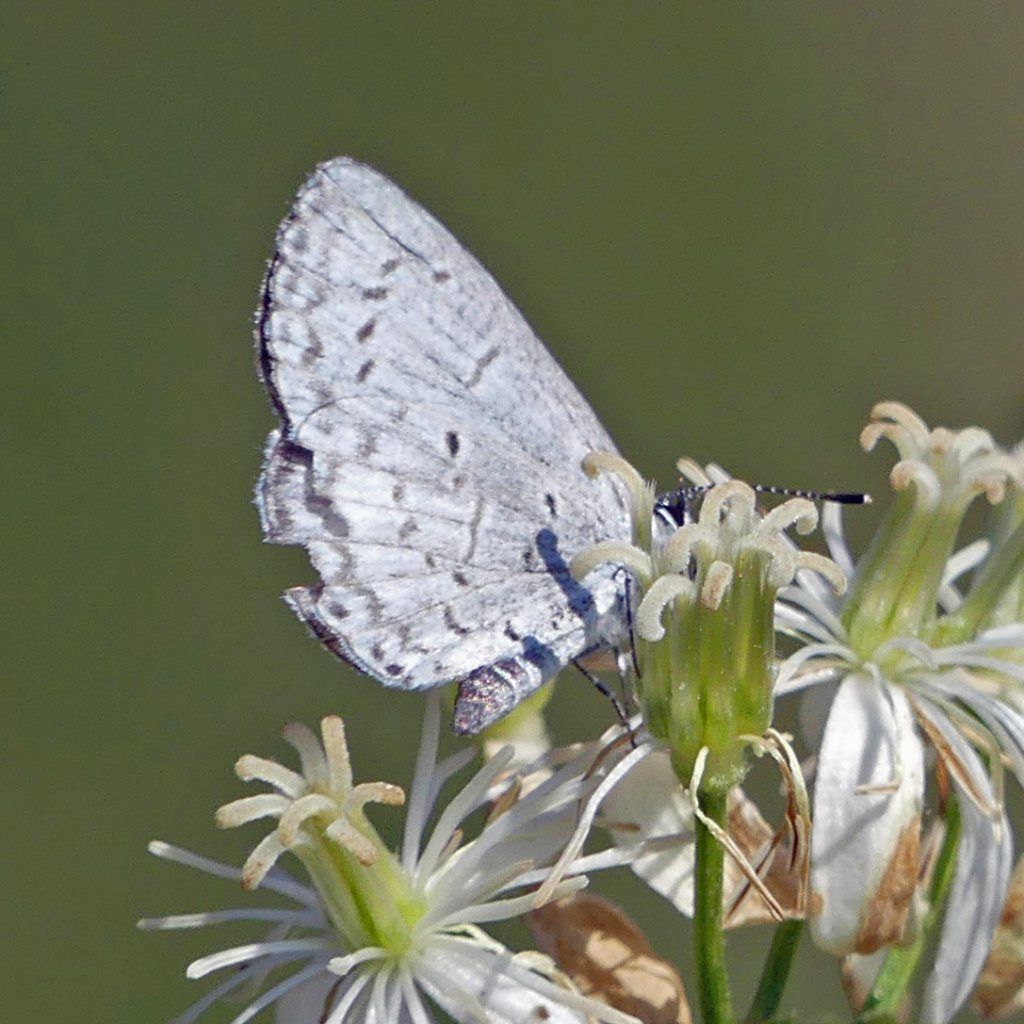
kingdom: Animalia
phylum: Arthropoda
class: Insecta
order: Lepidoptera
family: Lycaenidae
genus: Celastrina
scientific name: Celastrina
